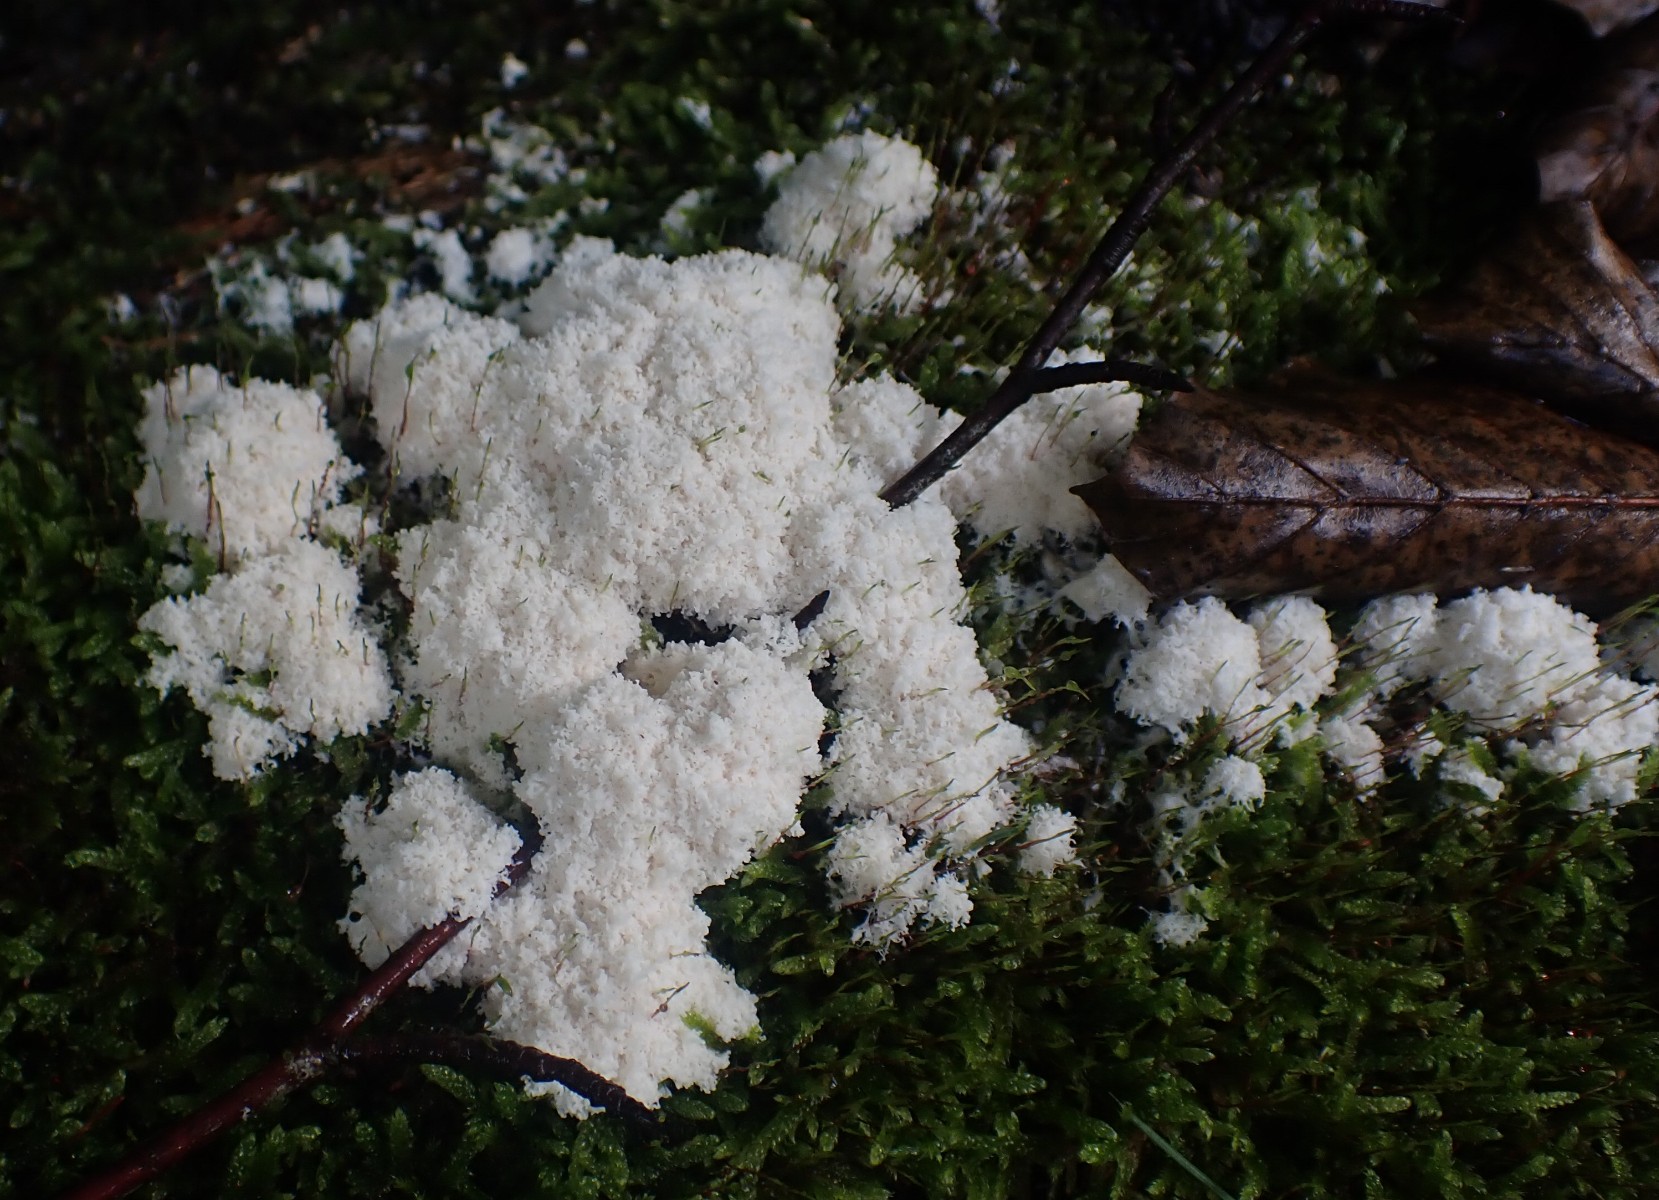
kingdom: Protozoa
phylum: Mycetozoa
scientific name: Mycetozoa
